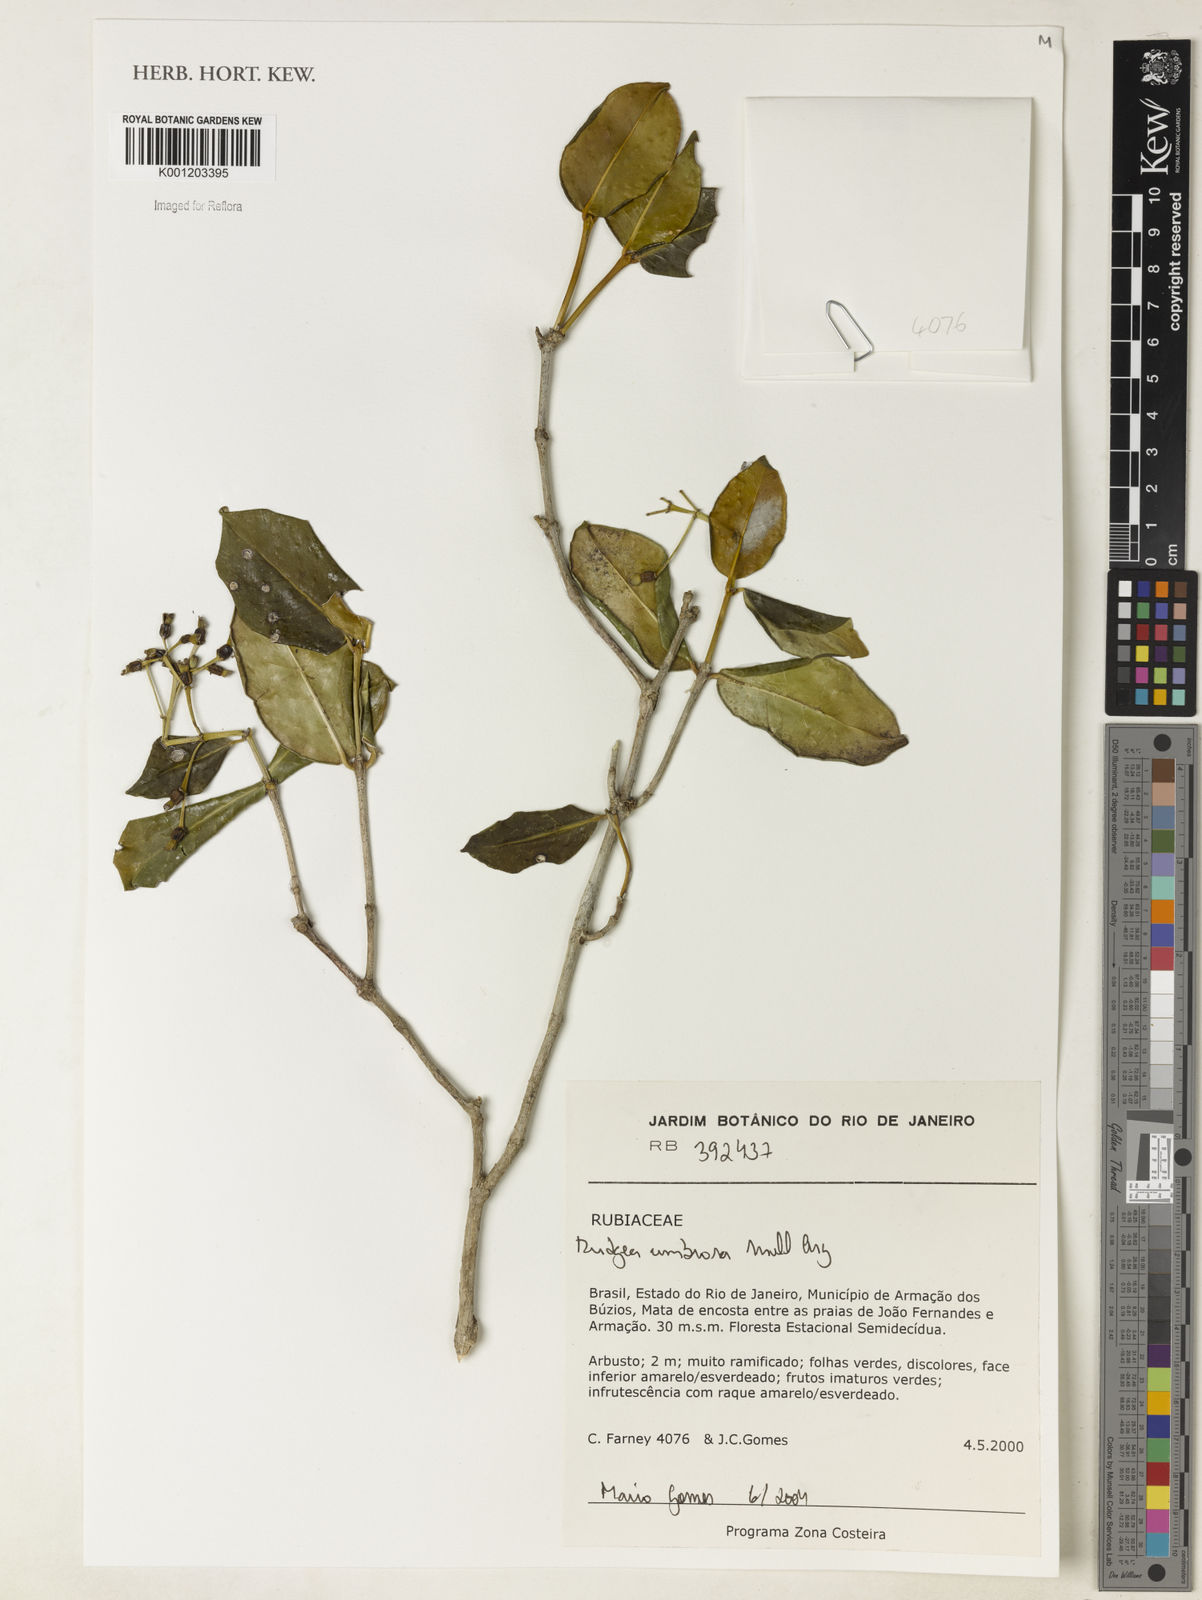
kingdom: Plantae
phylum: Tracheophyta
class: Magnoliopsida
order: Gentianales
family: Rubiaceae
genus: Rudgea
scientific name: Rudgea
